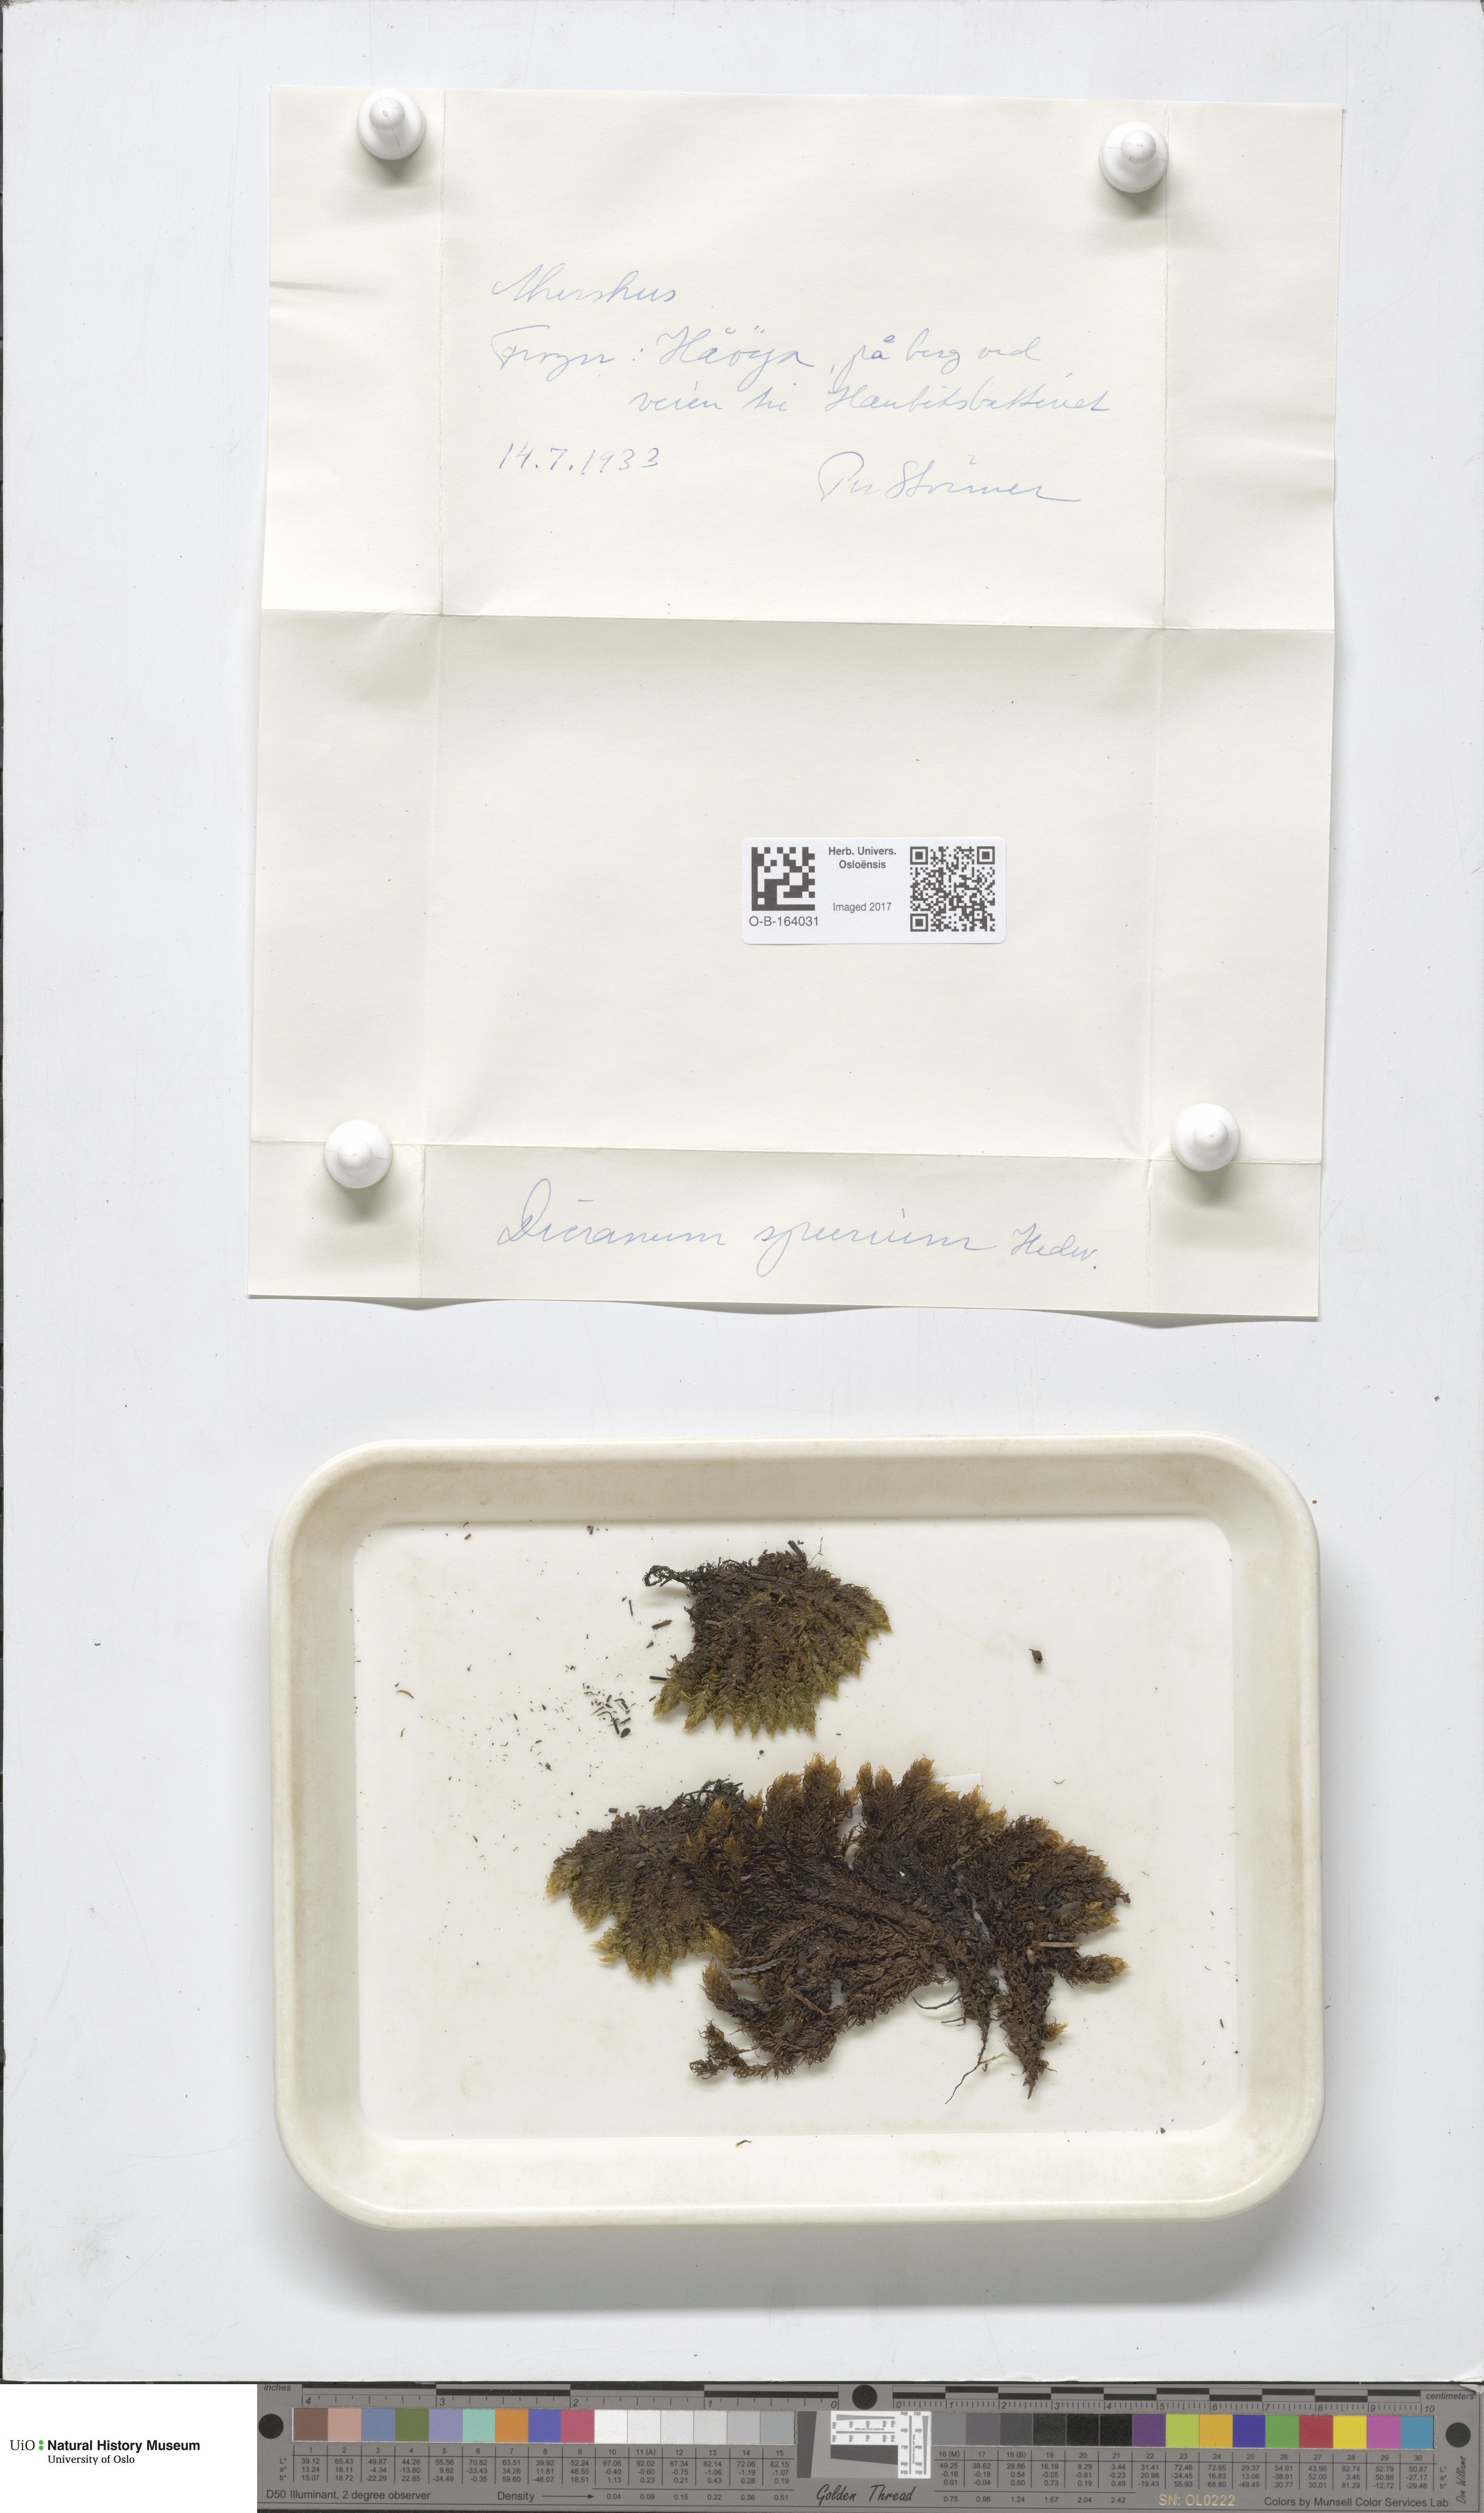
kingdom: Plantae
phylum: Bryophyta
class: Bryopsida
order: Dicranales
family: Dicranaceae
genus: Dicranum
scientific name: Dicranum spurium
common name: Spurred broom moss
